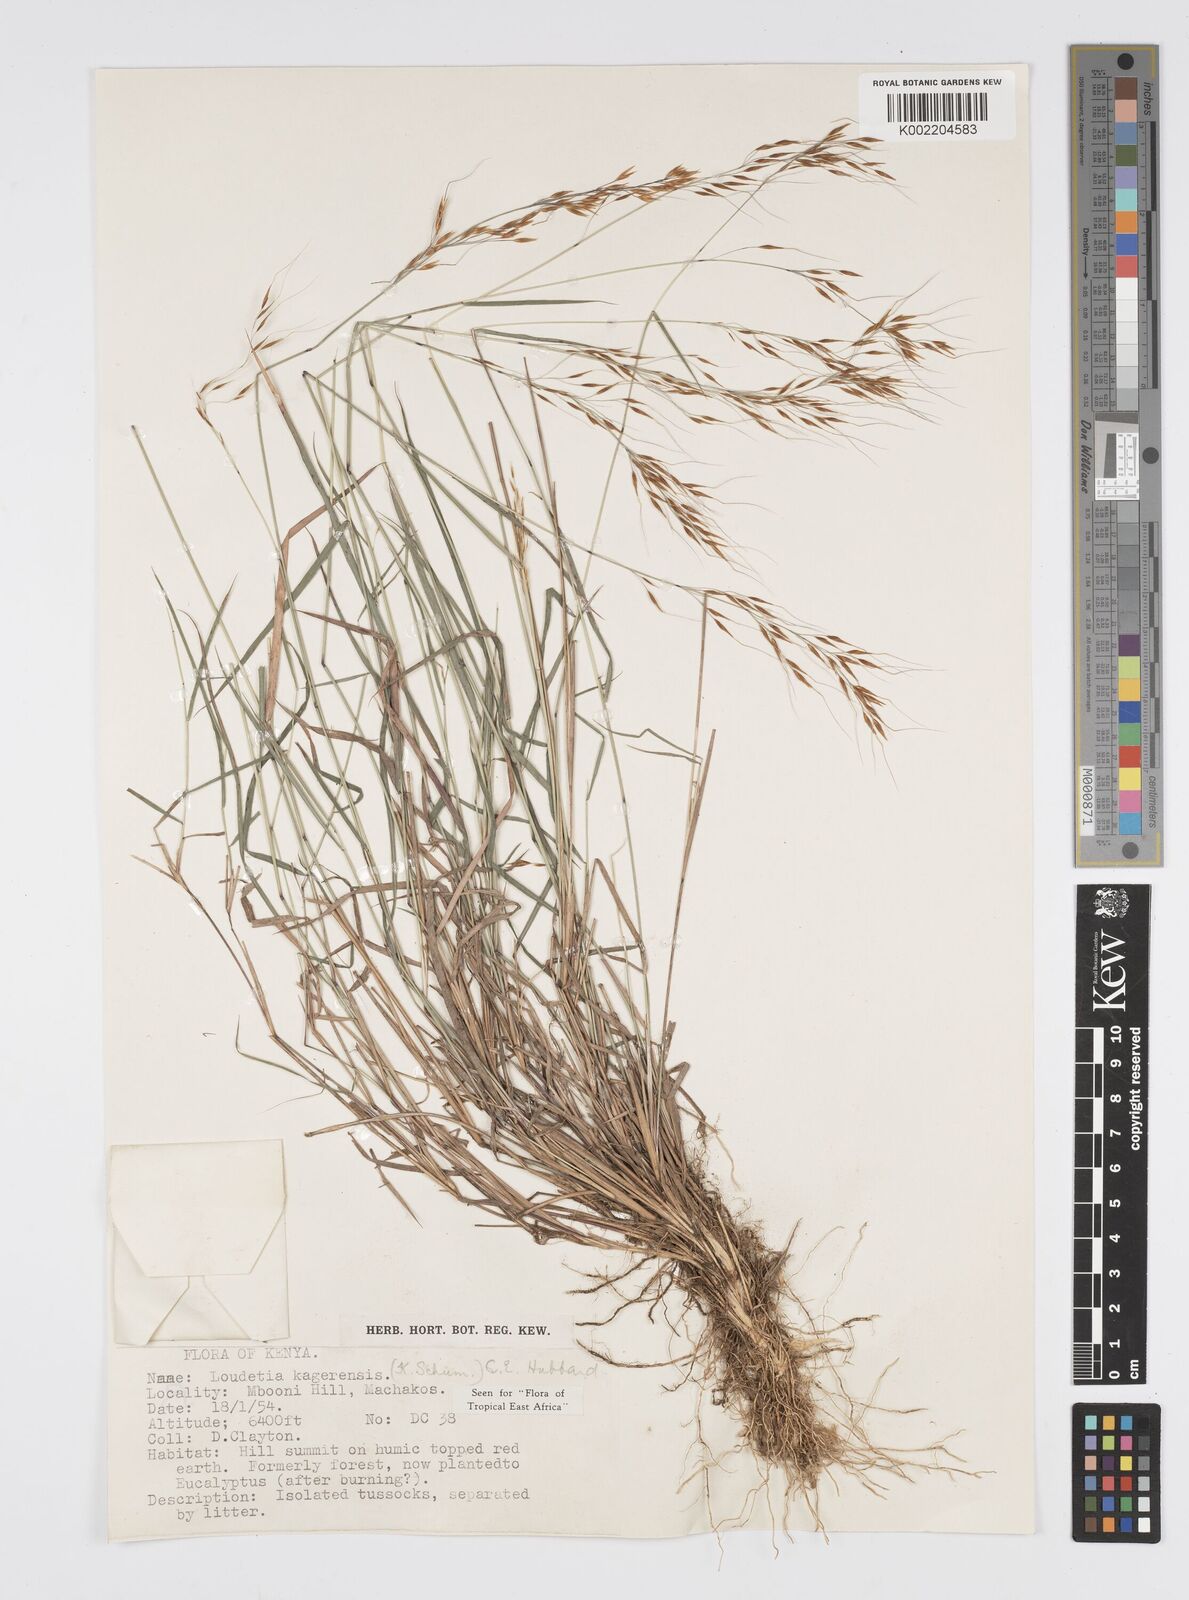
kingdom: Plantae
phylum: Tracheophyta
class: Liliopsida
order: Poales
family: Poaceae
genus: Loudetia
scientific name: Loudetia kagerensis
